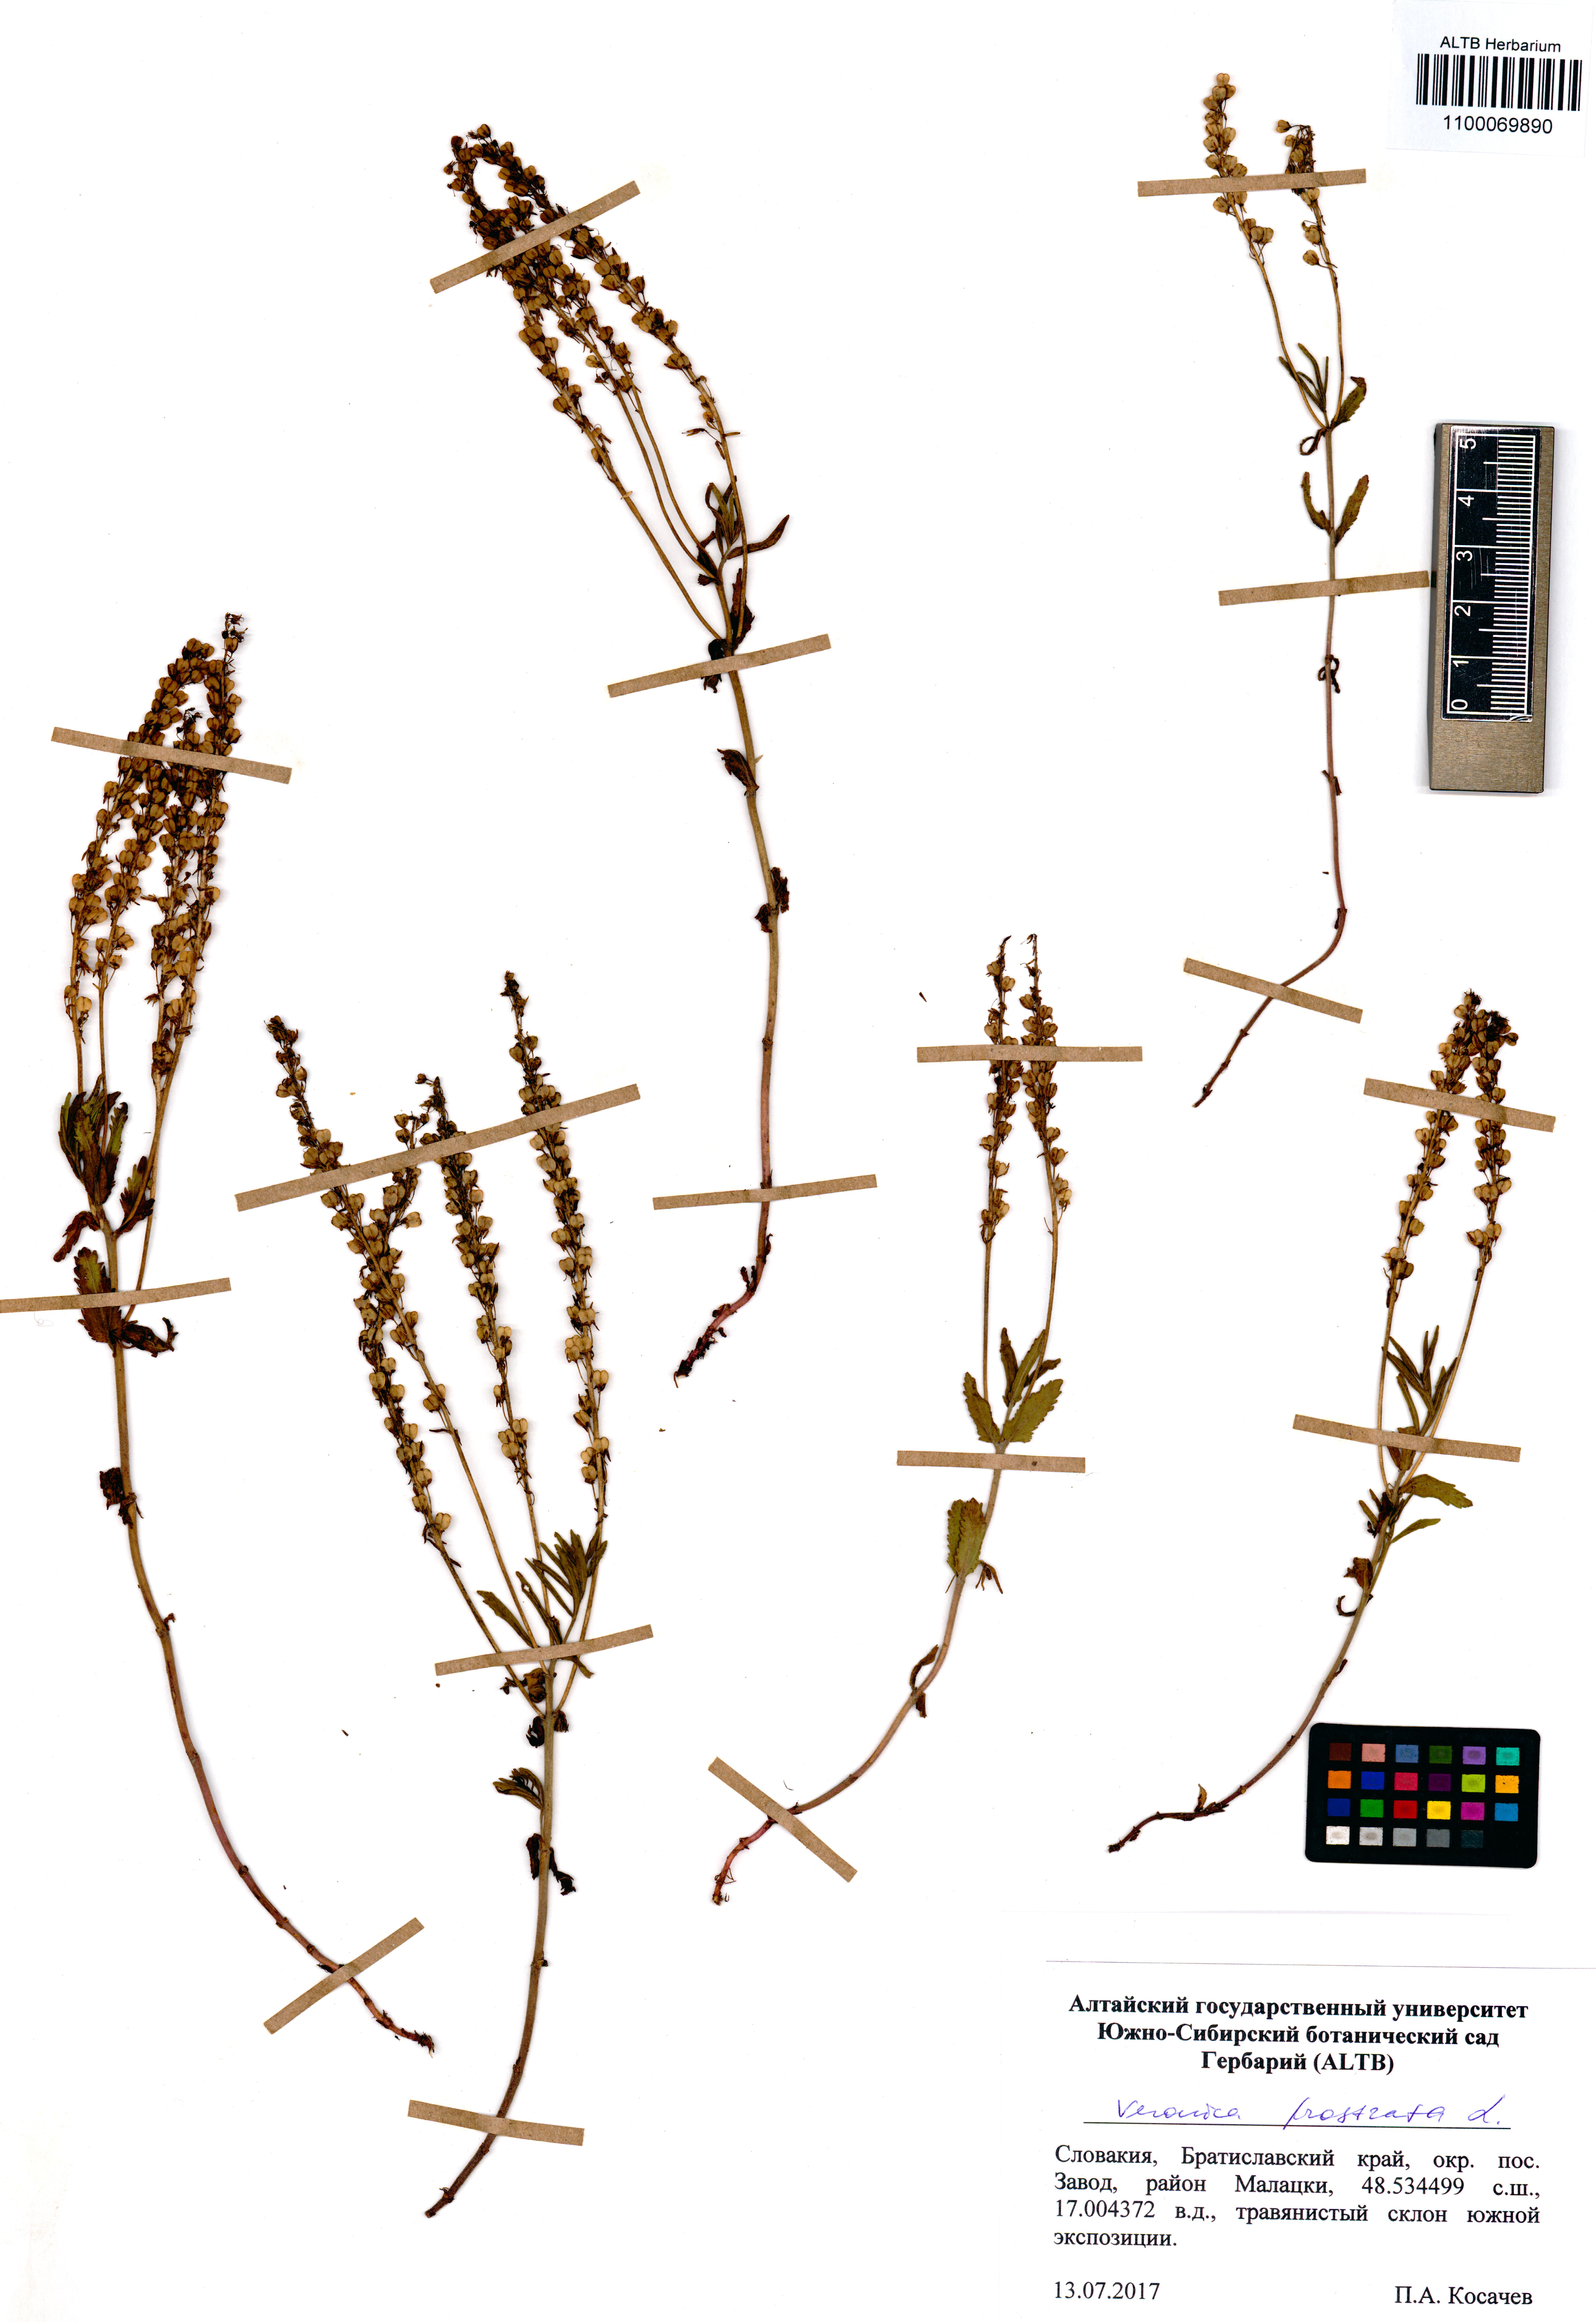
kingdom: Plantae
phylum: Tracheophyta
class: Magnoliopsida
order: Lamiales
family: Plantaginaceae
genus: Veronica
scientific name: Veronica prostrata
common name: Prostrate speedwell
